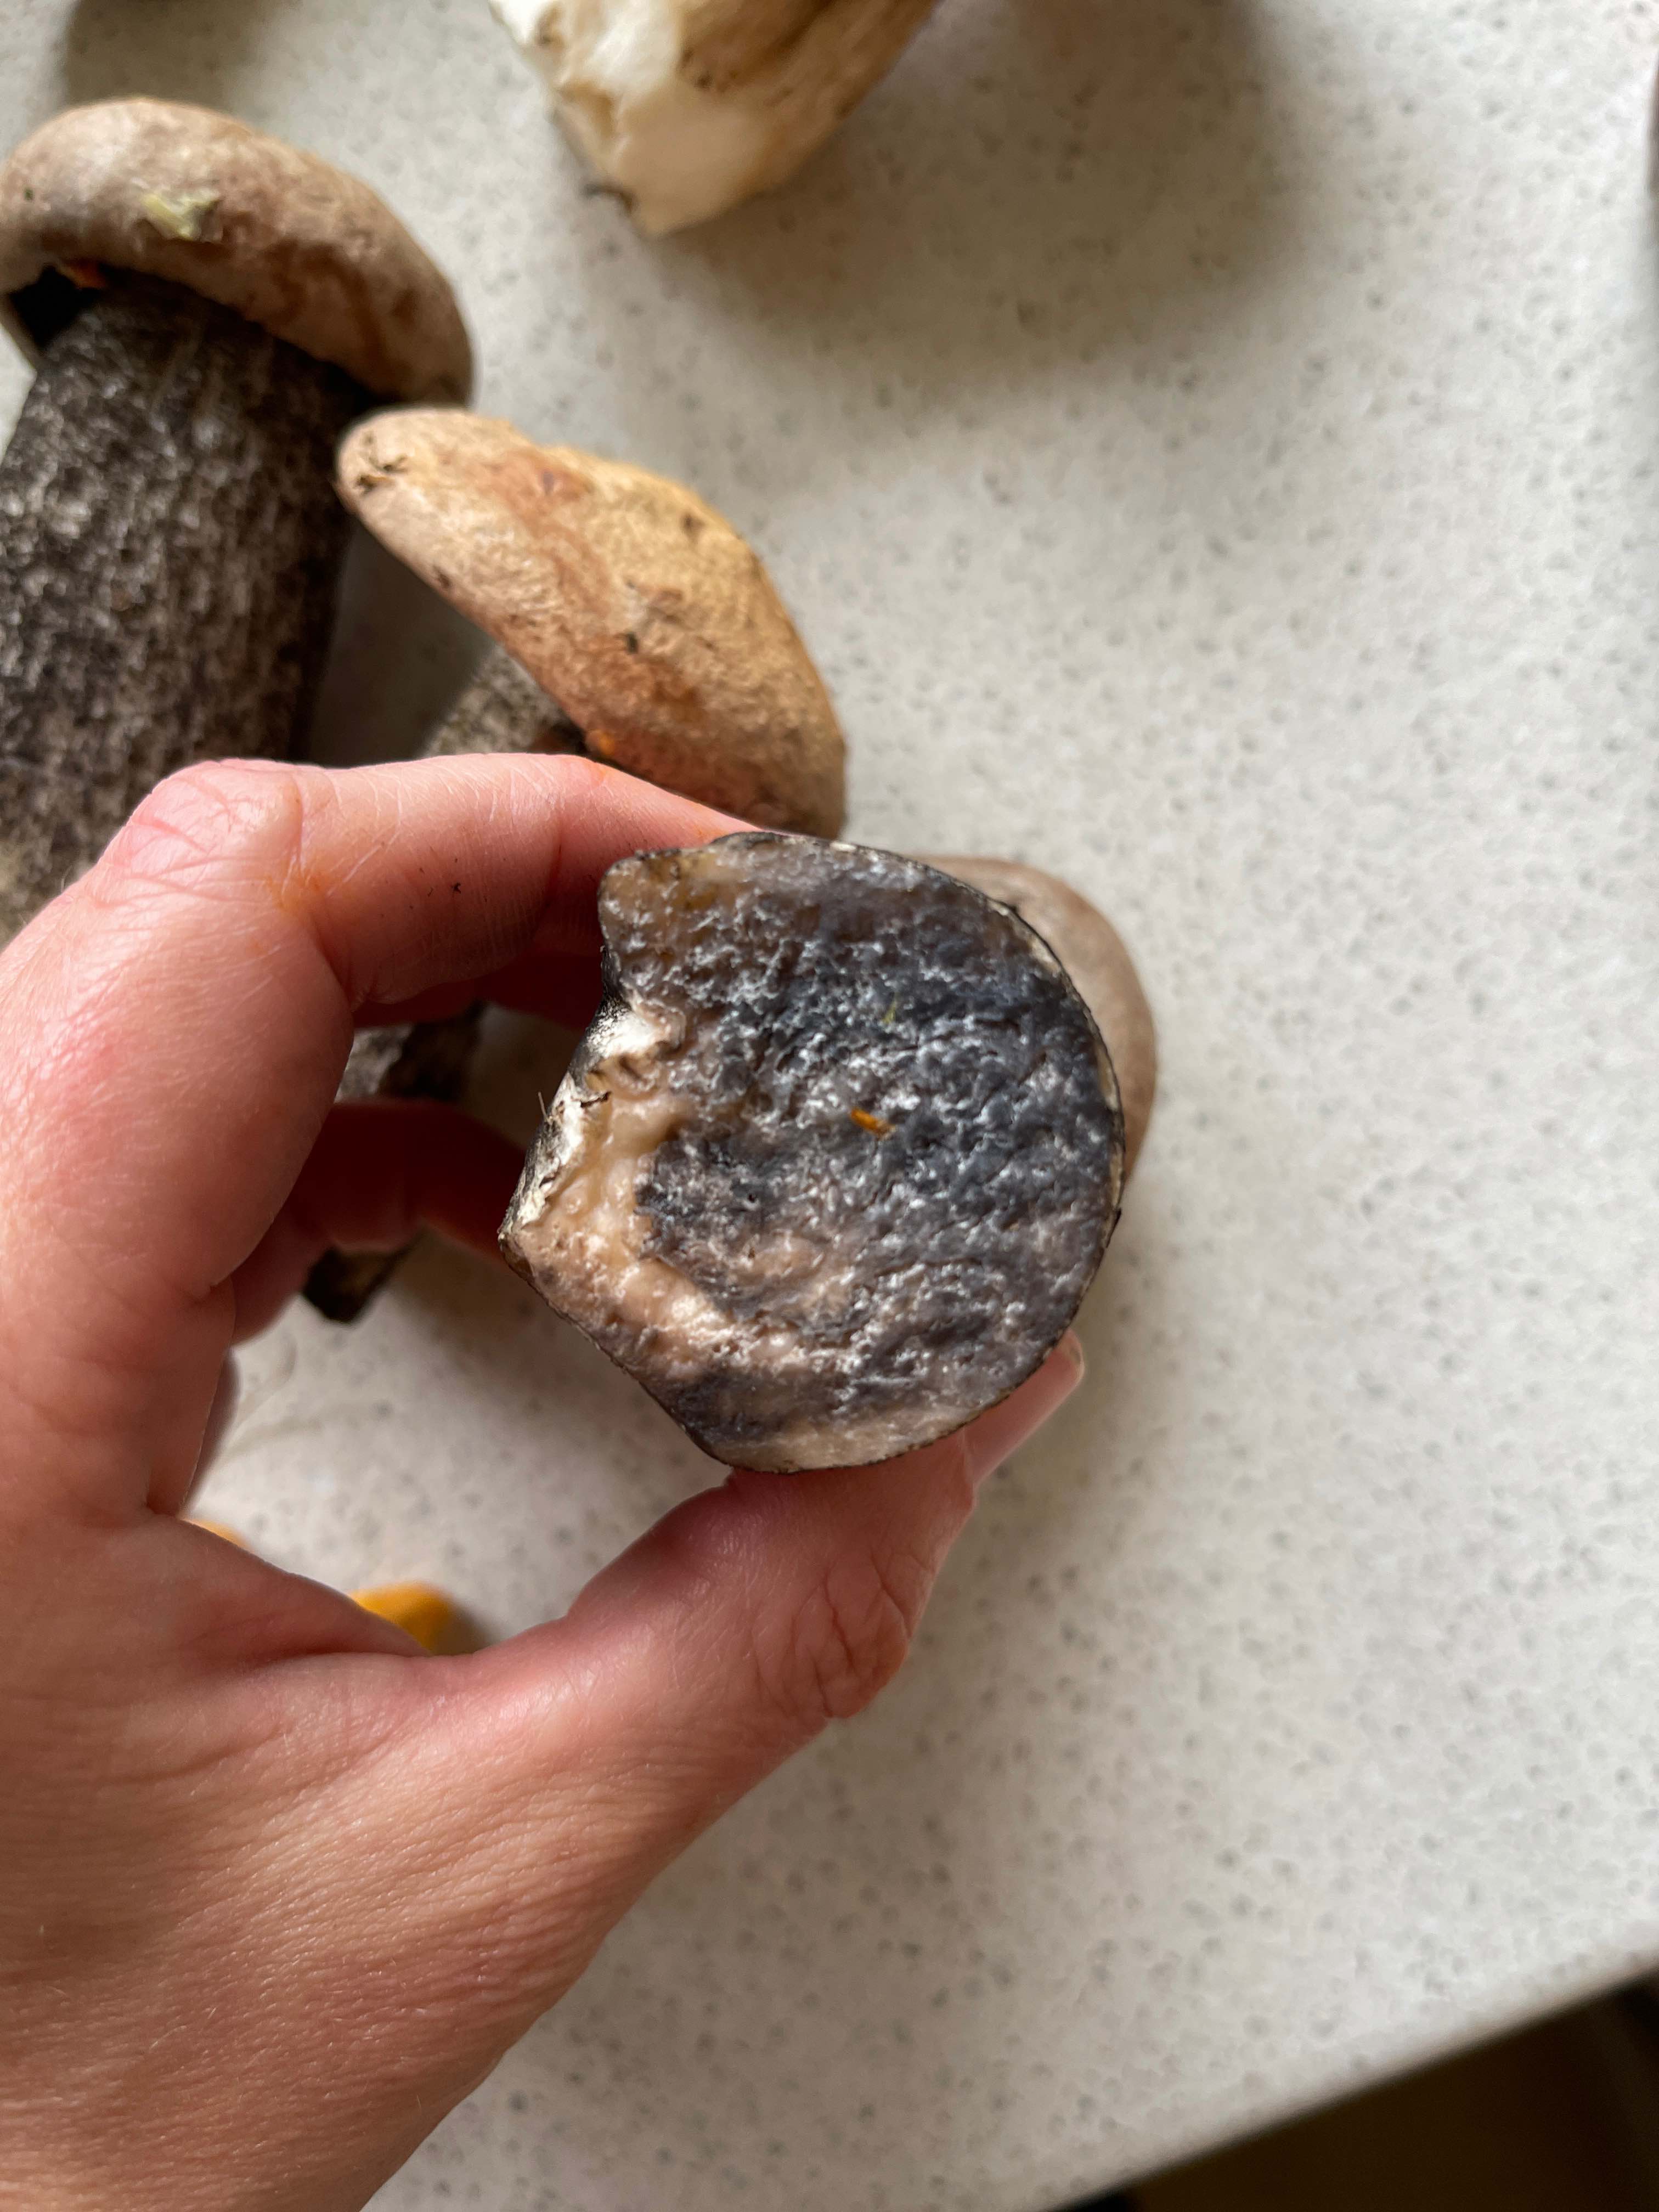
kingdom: Fungi
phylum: Basidiomycota
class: Agaricomycetes
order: Boletales
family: Boletaceae
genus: Leccinum
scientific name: Leccinum scabrum
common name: brun skælrørhat
